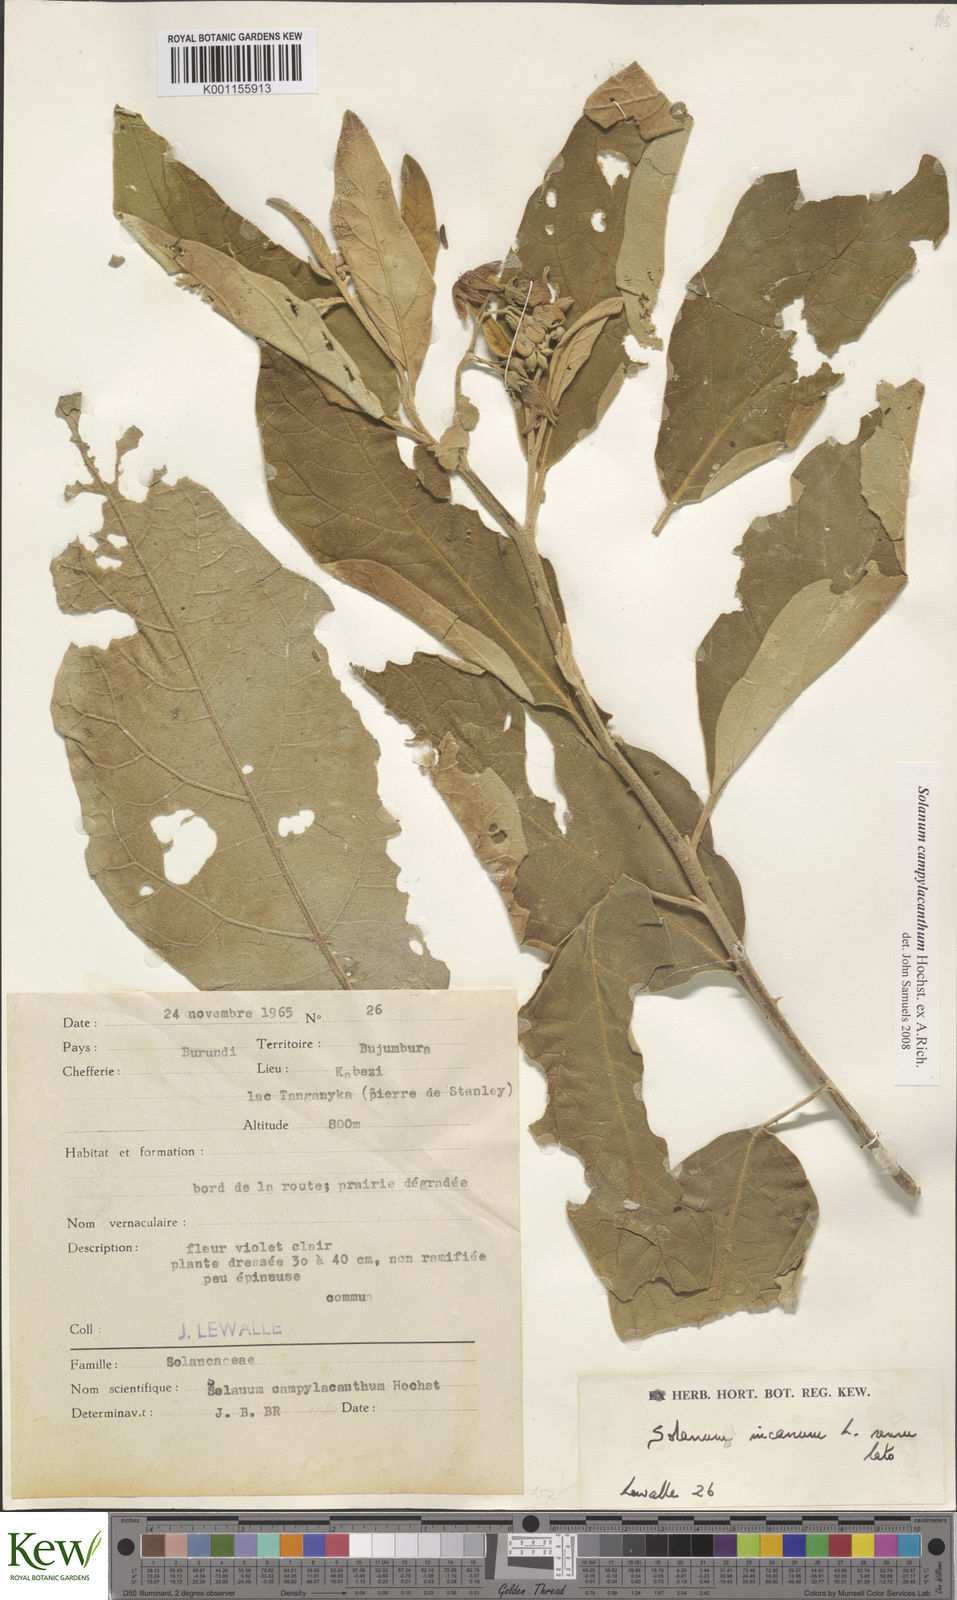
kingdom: Plantae
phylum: Tracheophyta
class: Magnoliopsida
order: Solanales
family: Solanaceae
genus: Solanum
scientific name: Solanum campylacanthum
